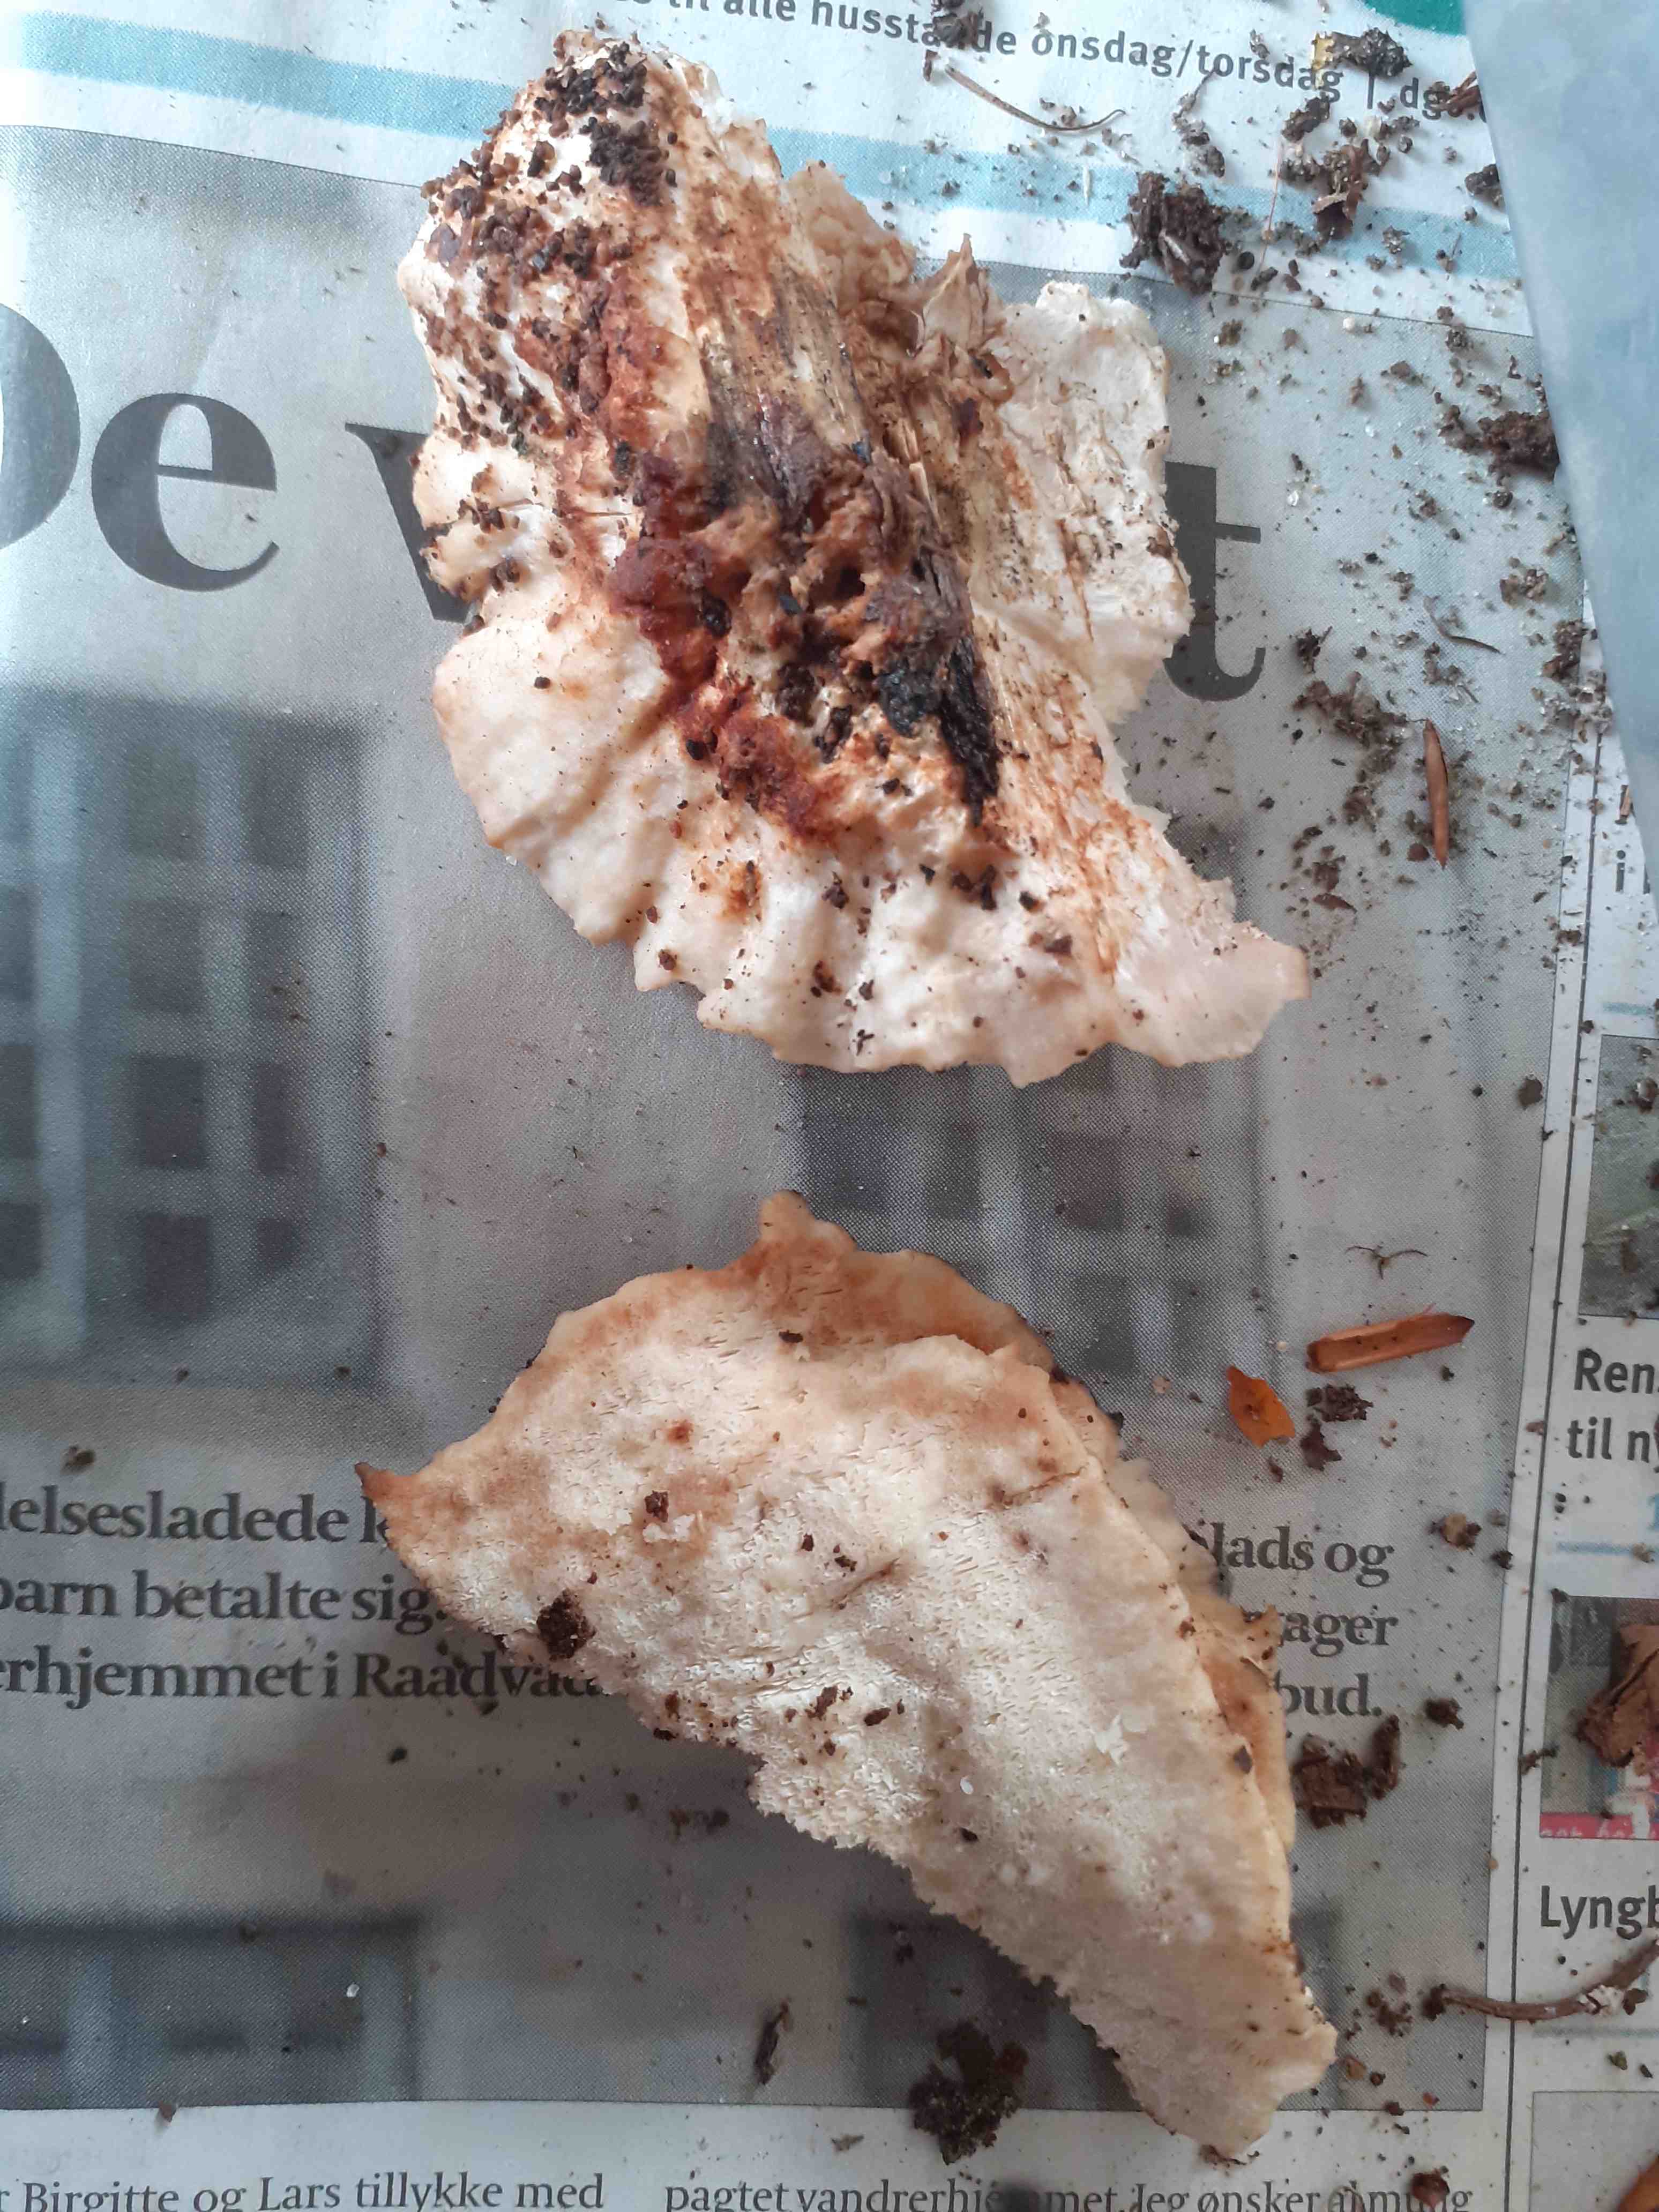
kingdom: Fungi
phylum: Basidiomycota
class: Agaricomycetes
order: Polyporales
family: Dacryobolaceae
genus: Postia
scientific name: Postia balsamea
